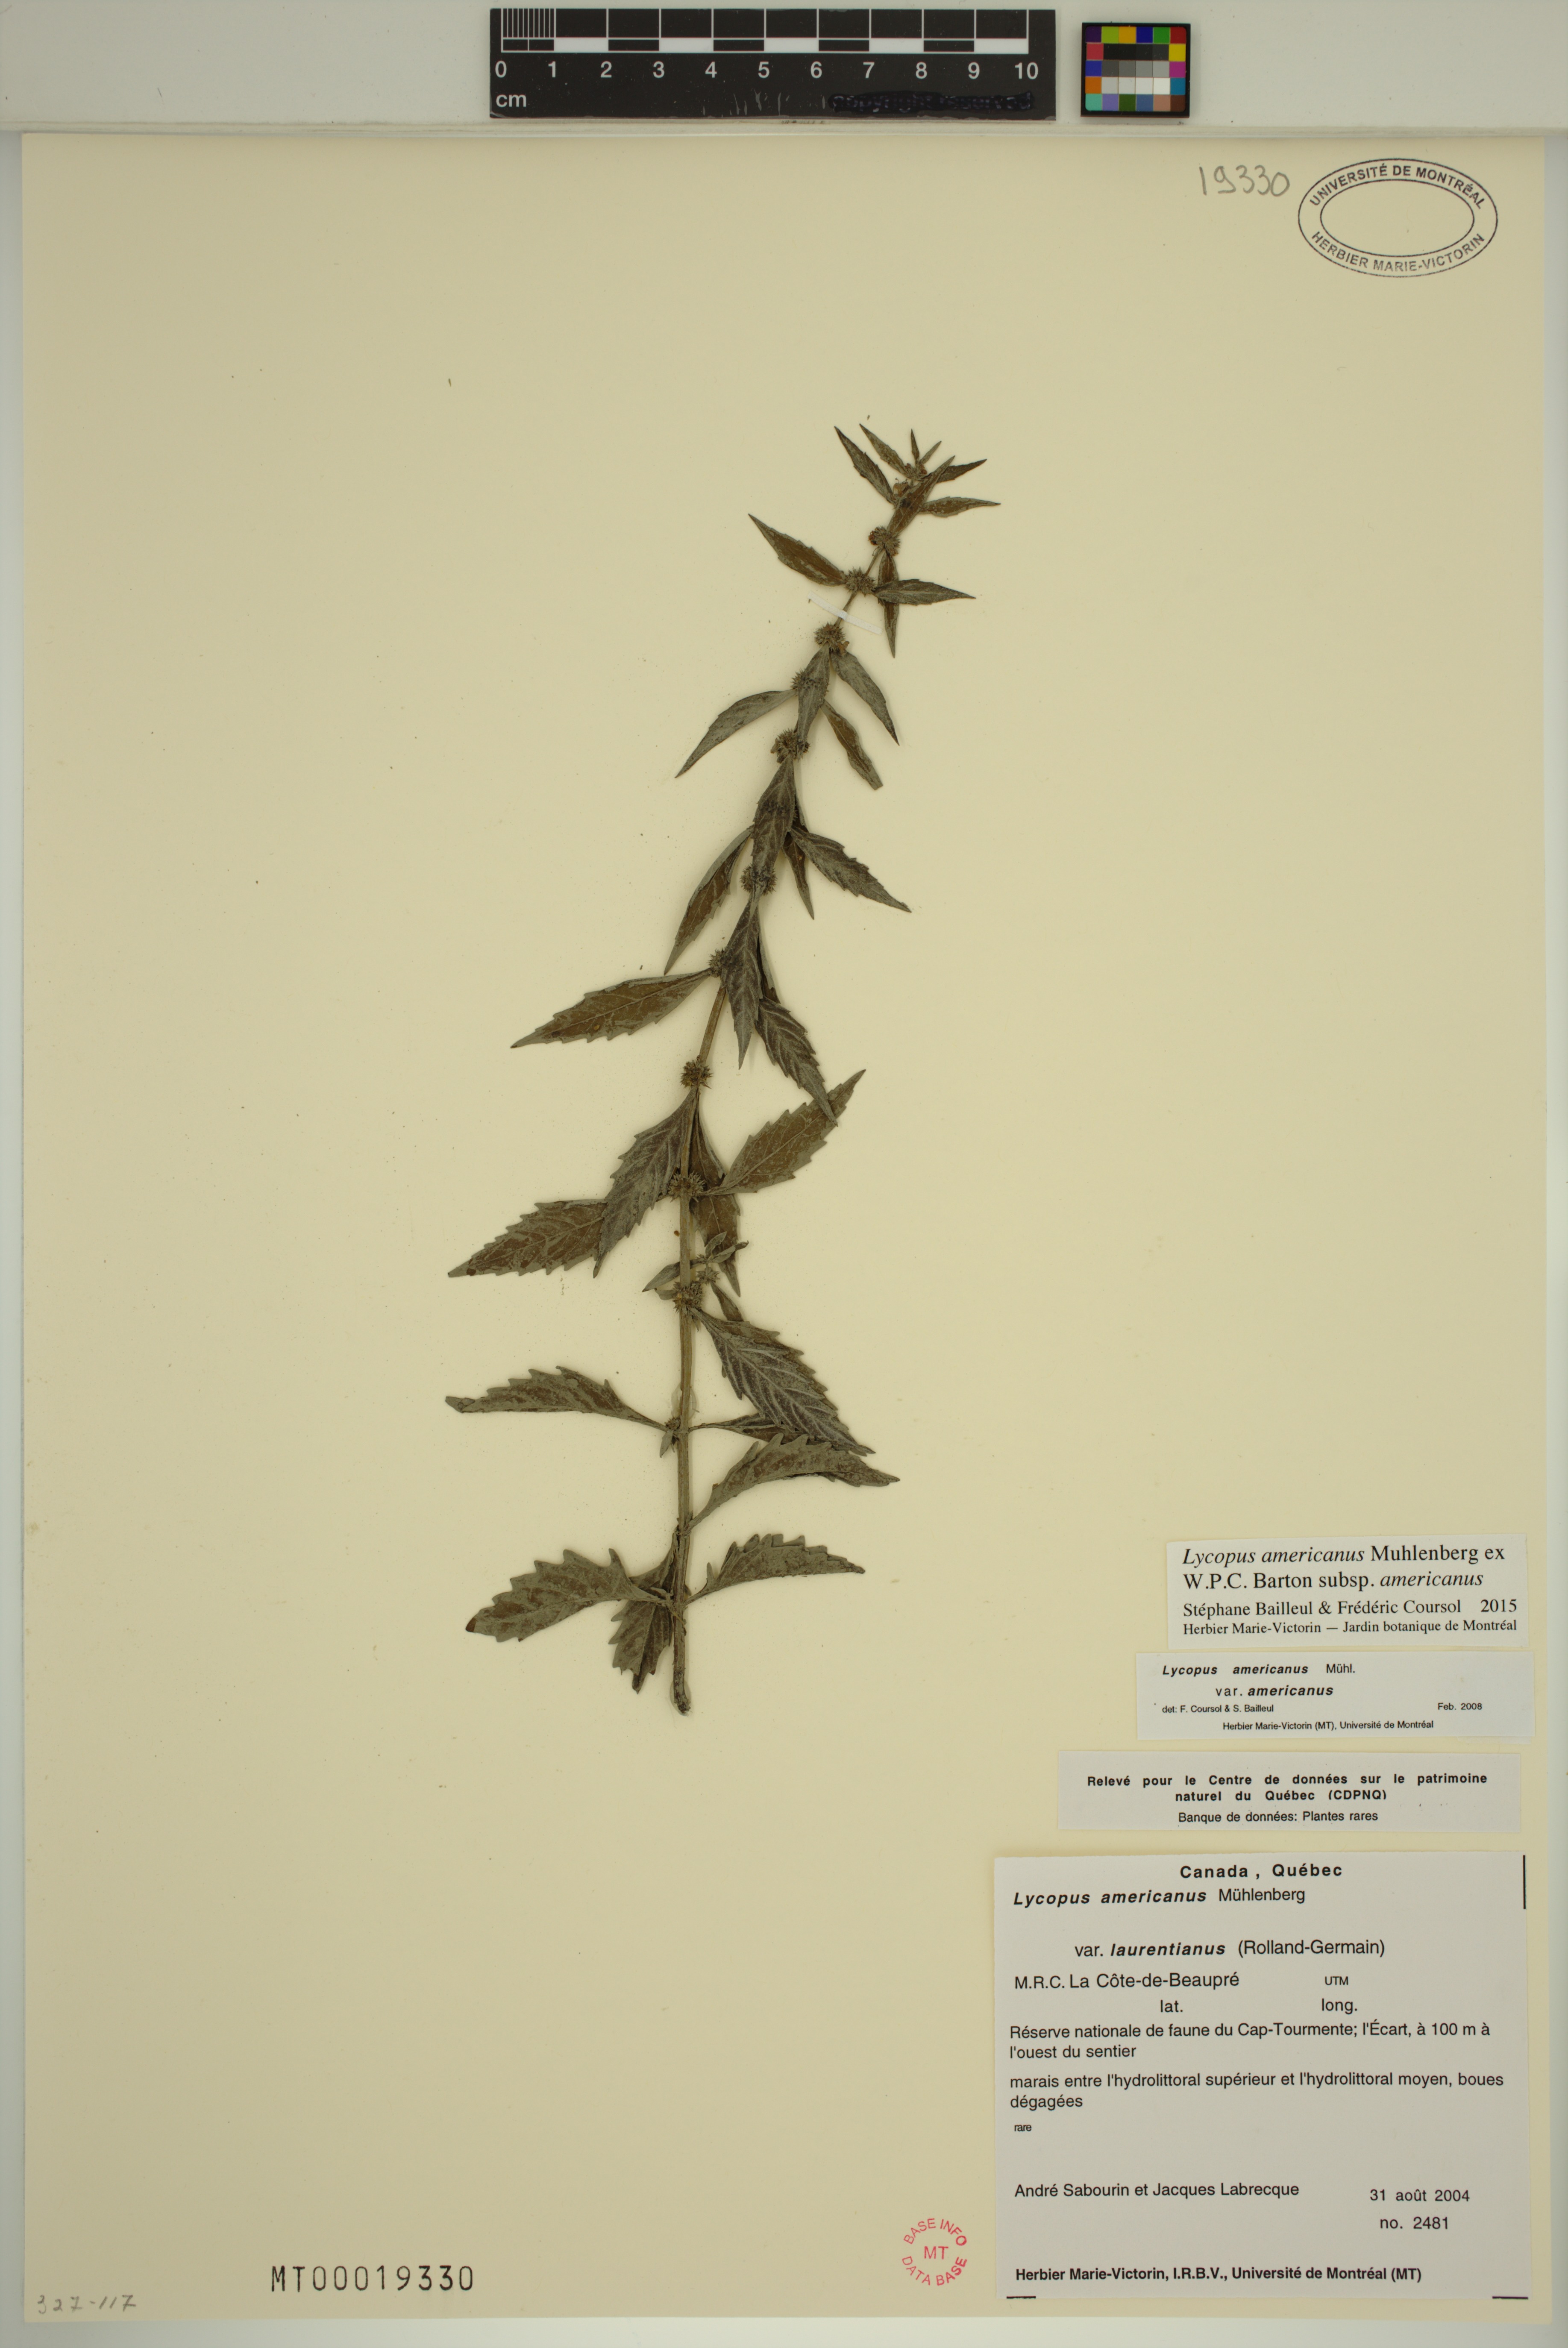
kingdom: Plantae
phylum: Tracheophyta
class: Magnoliopsida
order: Lamiales
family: Lamiaceae
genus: Lycopus
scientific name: Lycopus americanus
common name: American bugleweed
